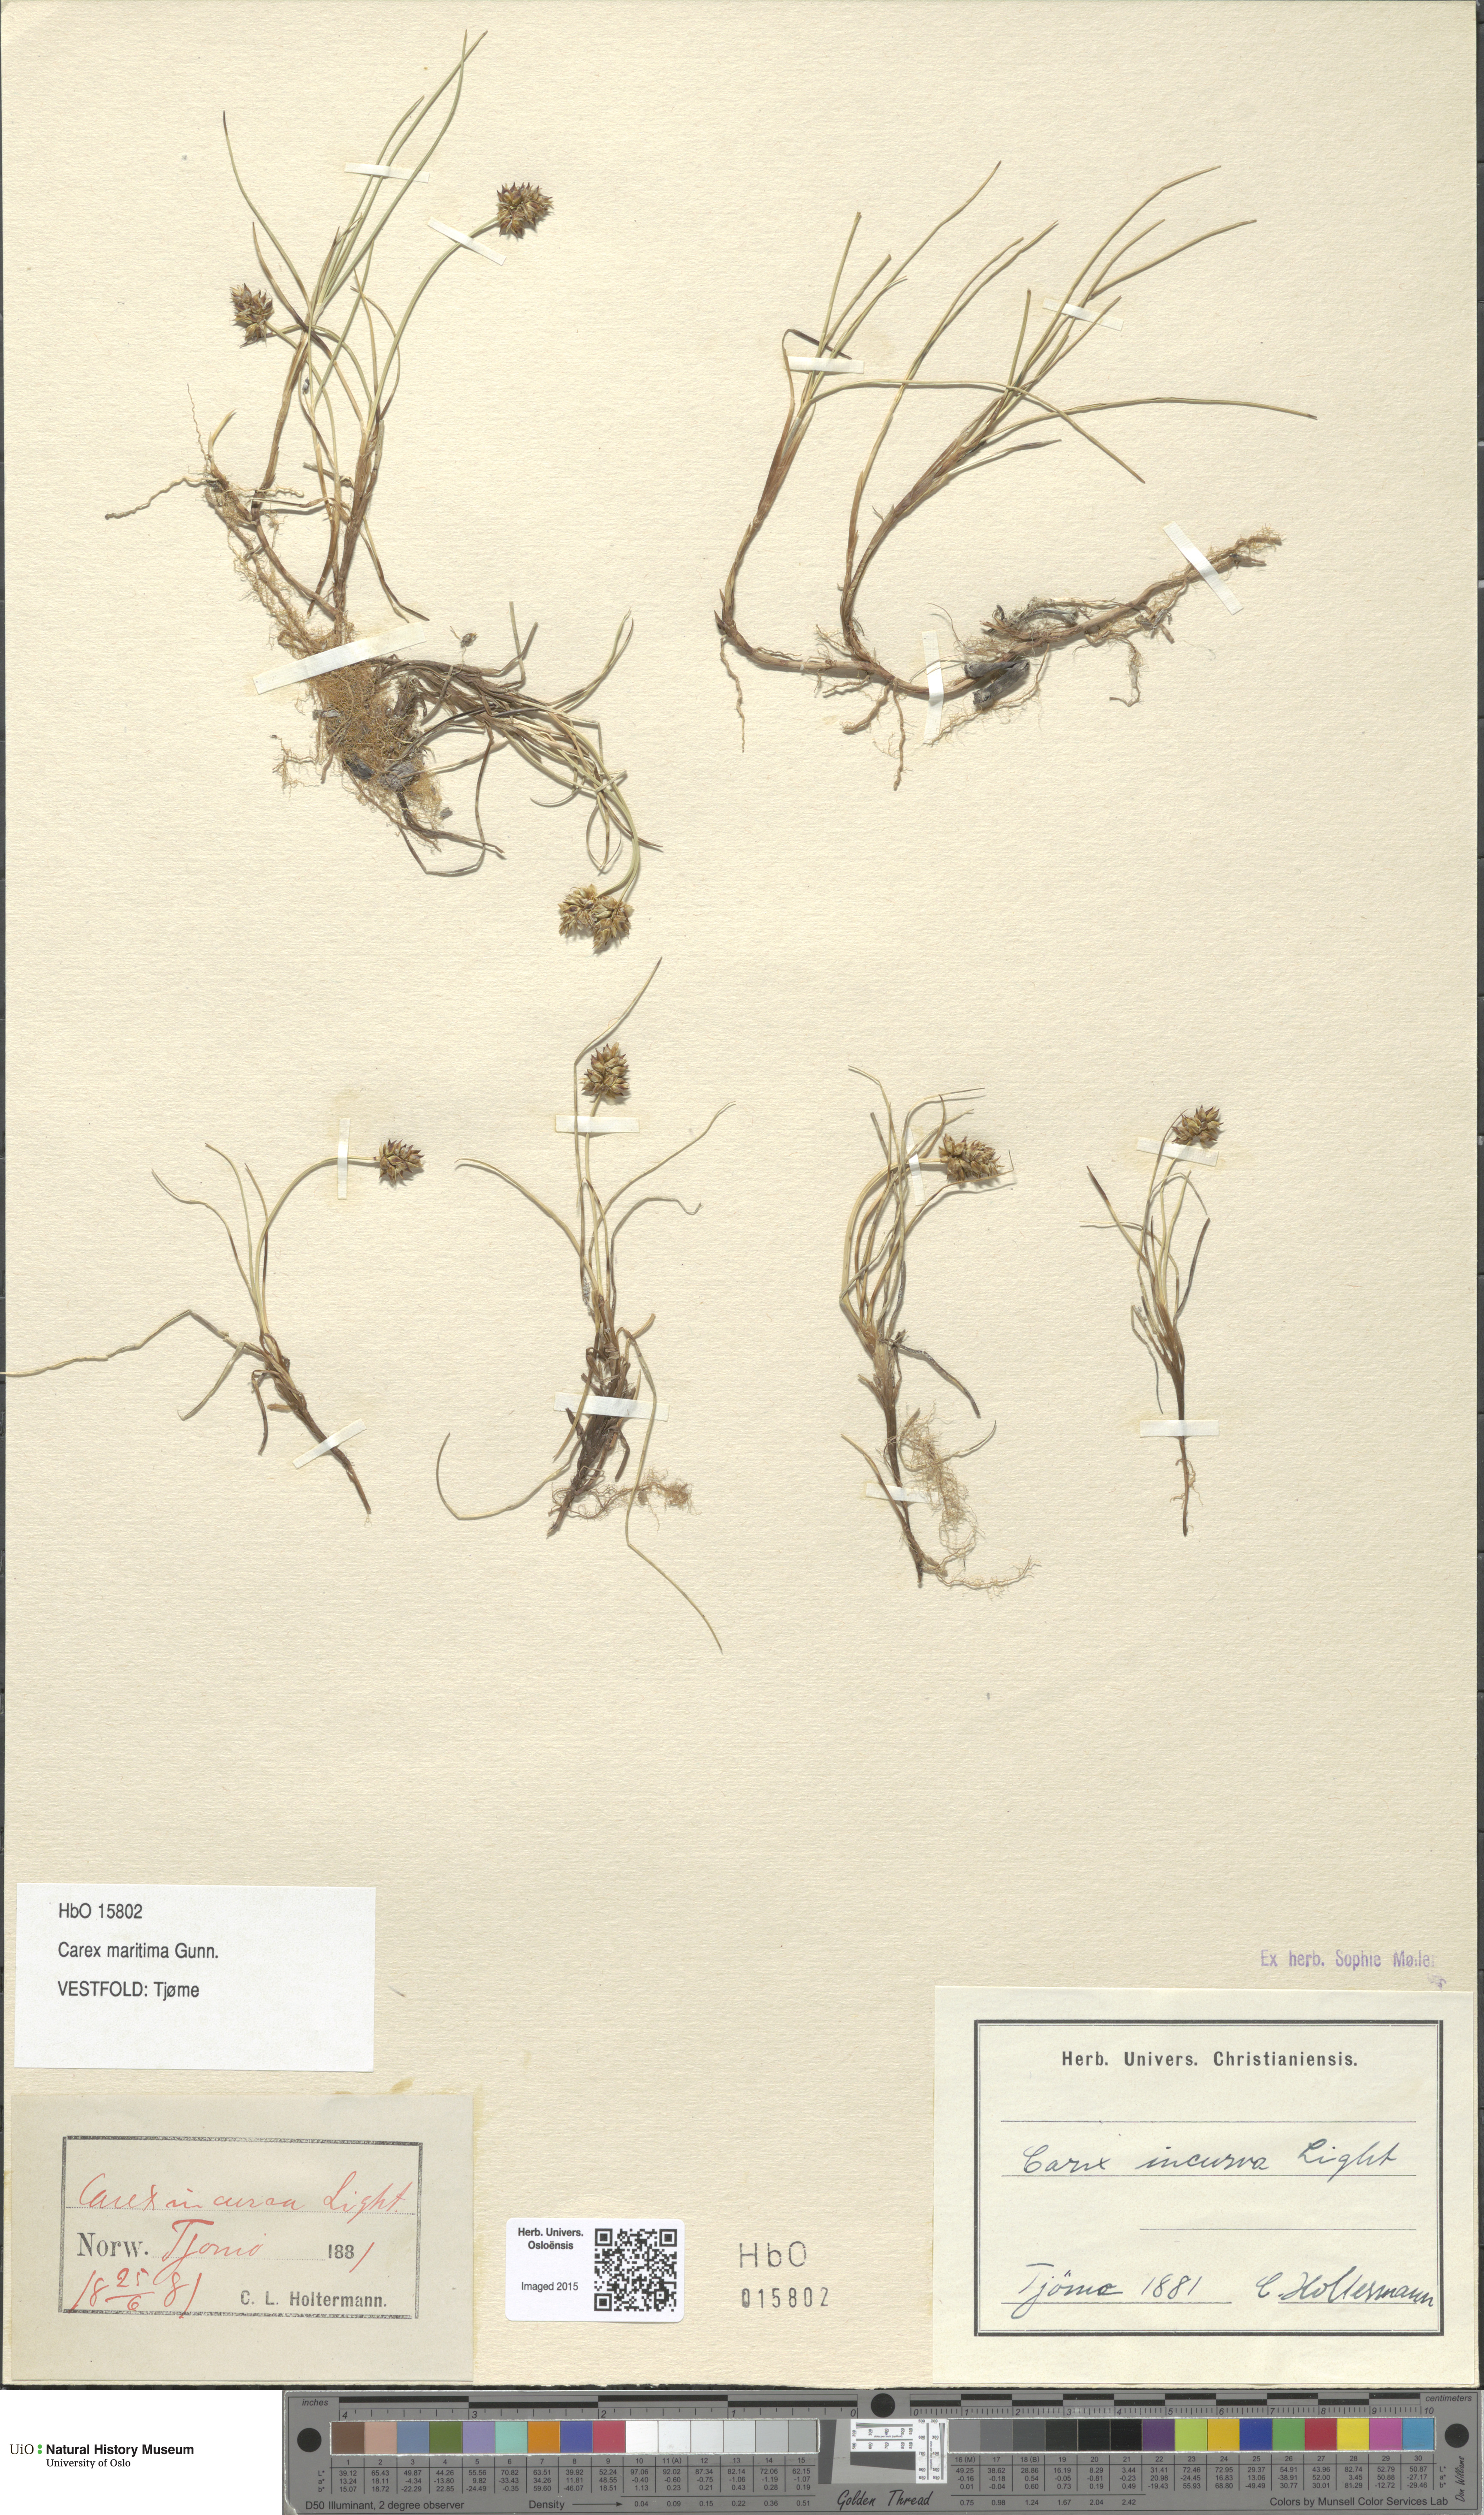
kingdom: Plantae
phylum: Tracheophyta
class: Liliopsida
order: Poales
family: Cyperaceae
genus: Carex
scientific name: Carex maritima
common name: Curved sedge
